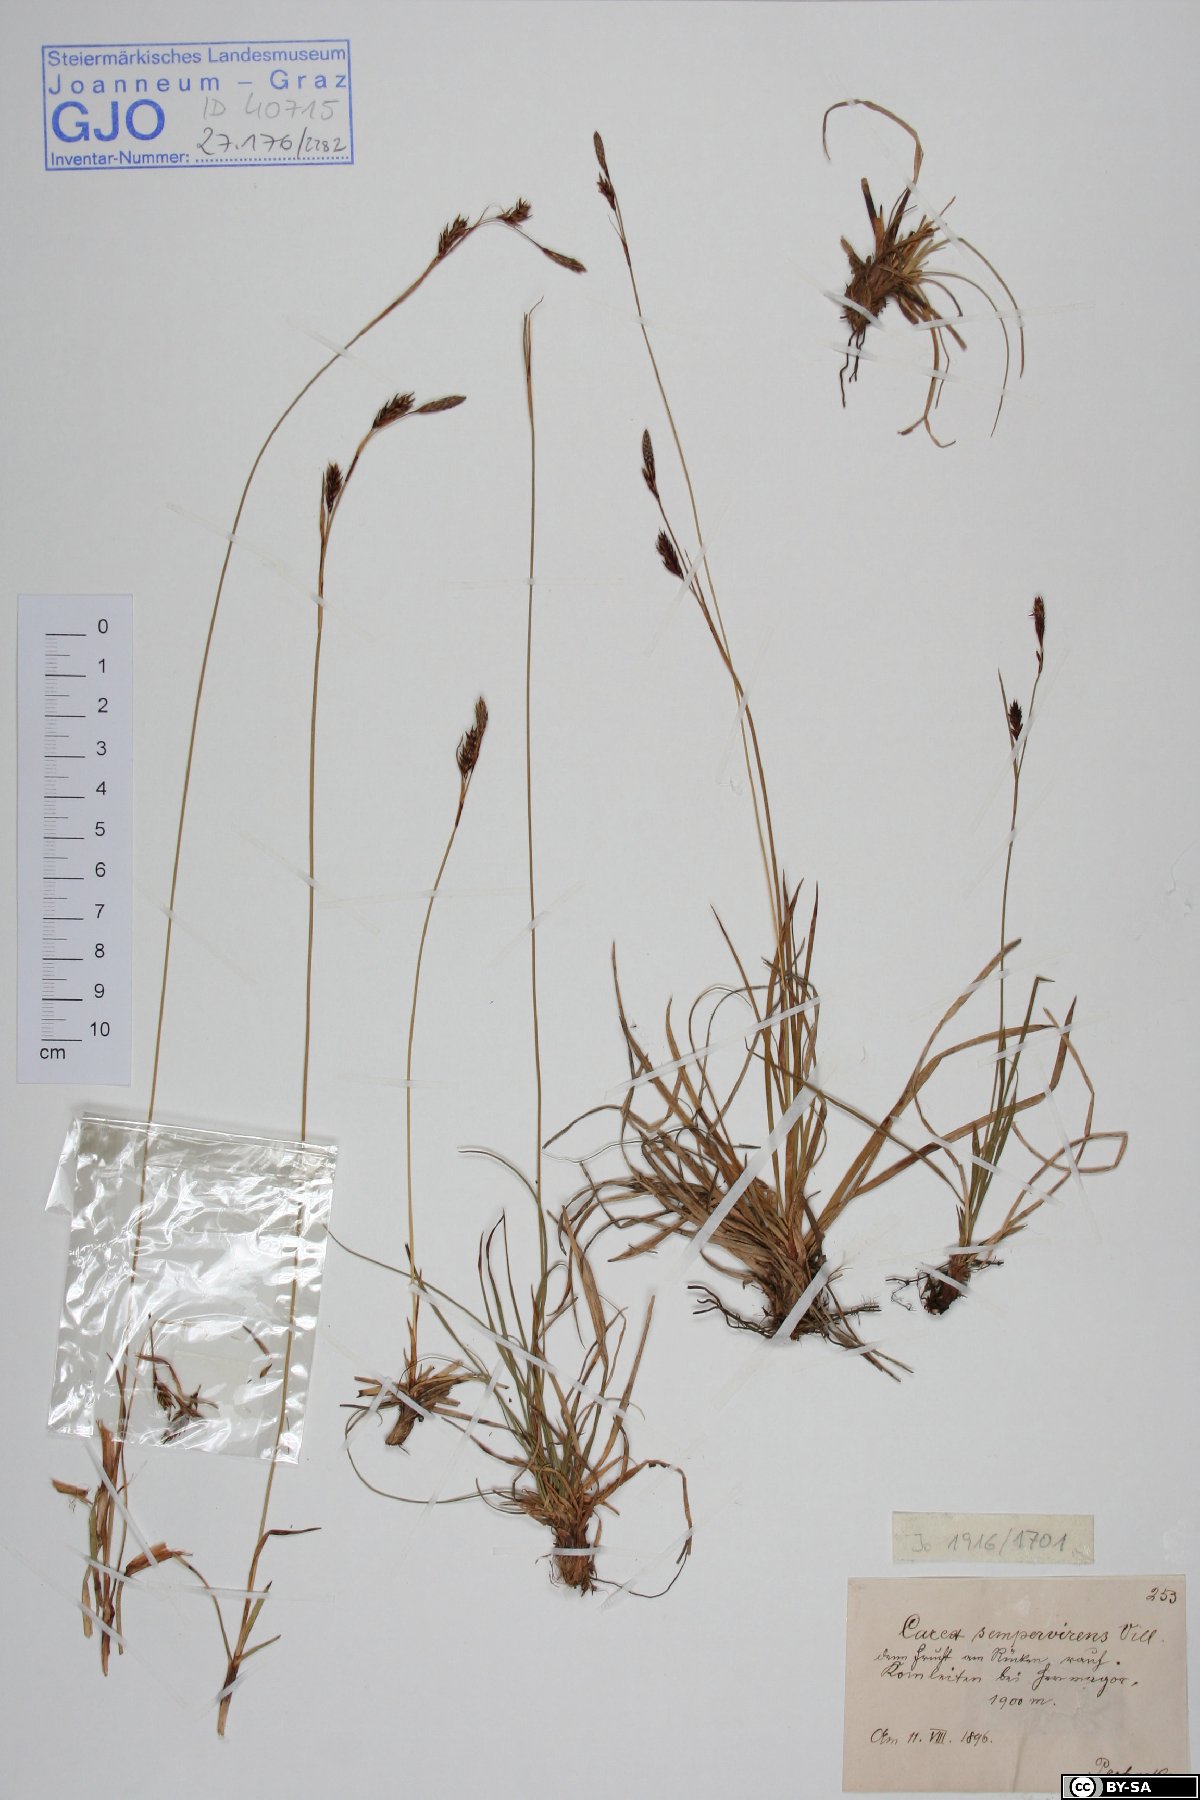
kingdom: Plantae
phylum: Tracheophyta
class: Liliopsida
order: Poales
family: Cyperaceae
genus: Carex
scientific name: Carex sempervirens
